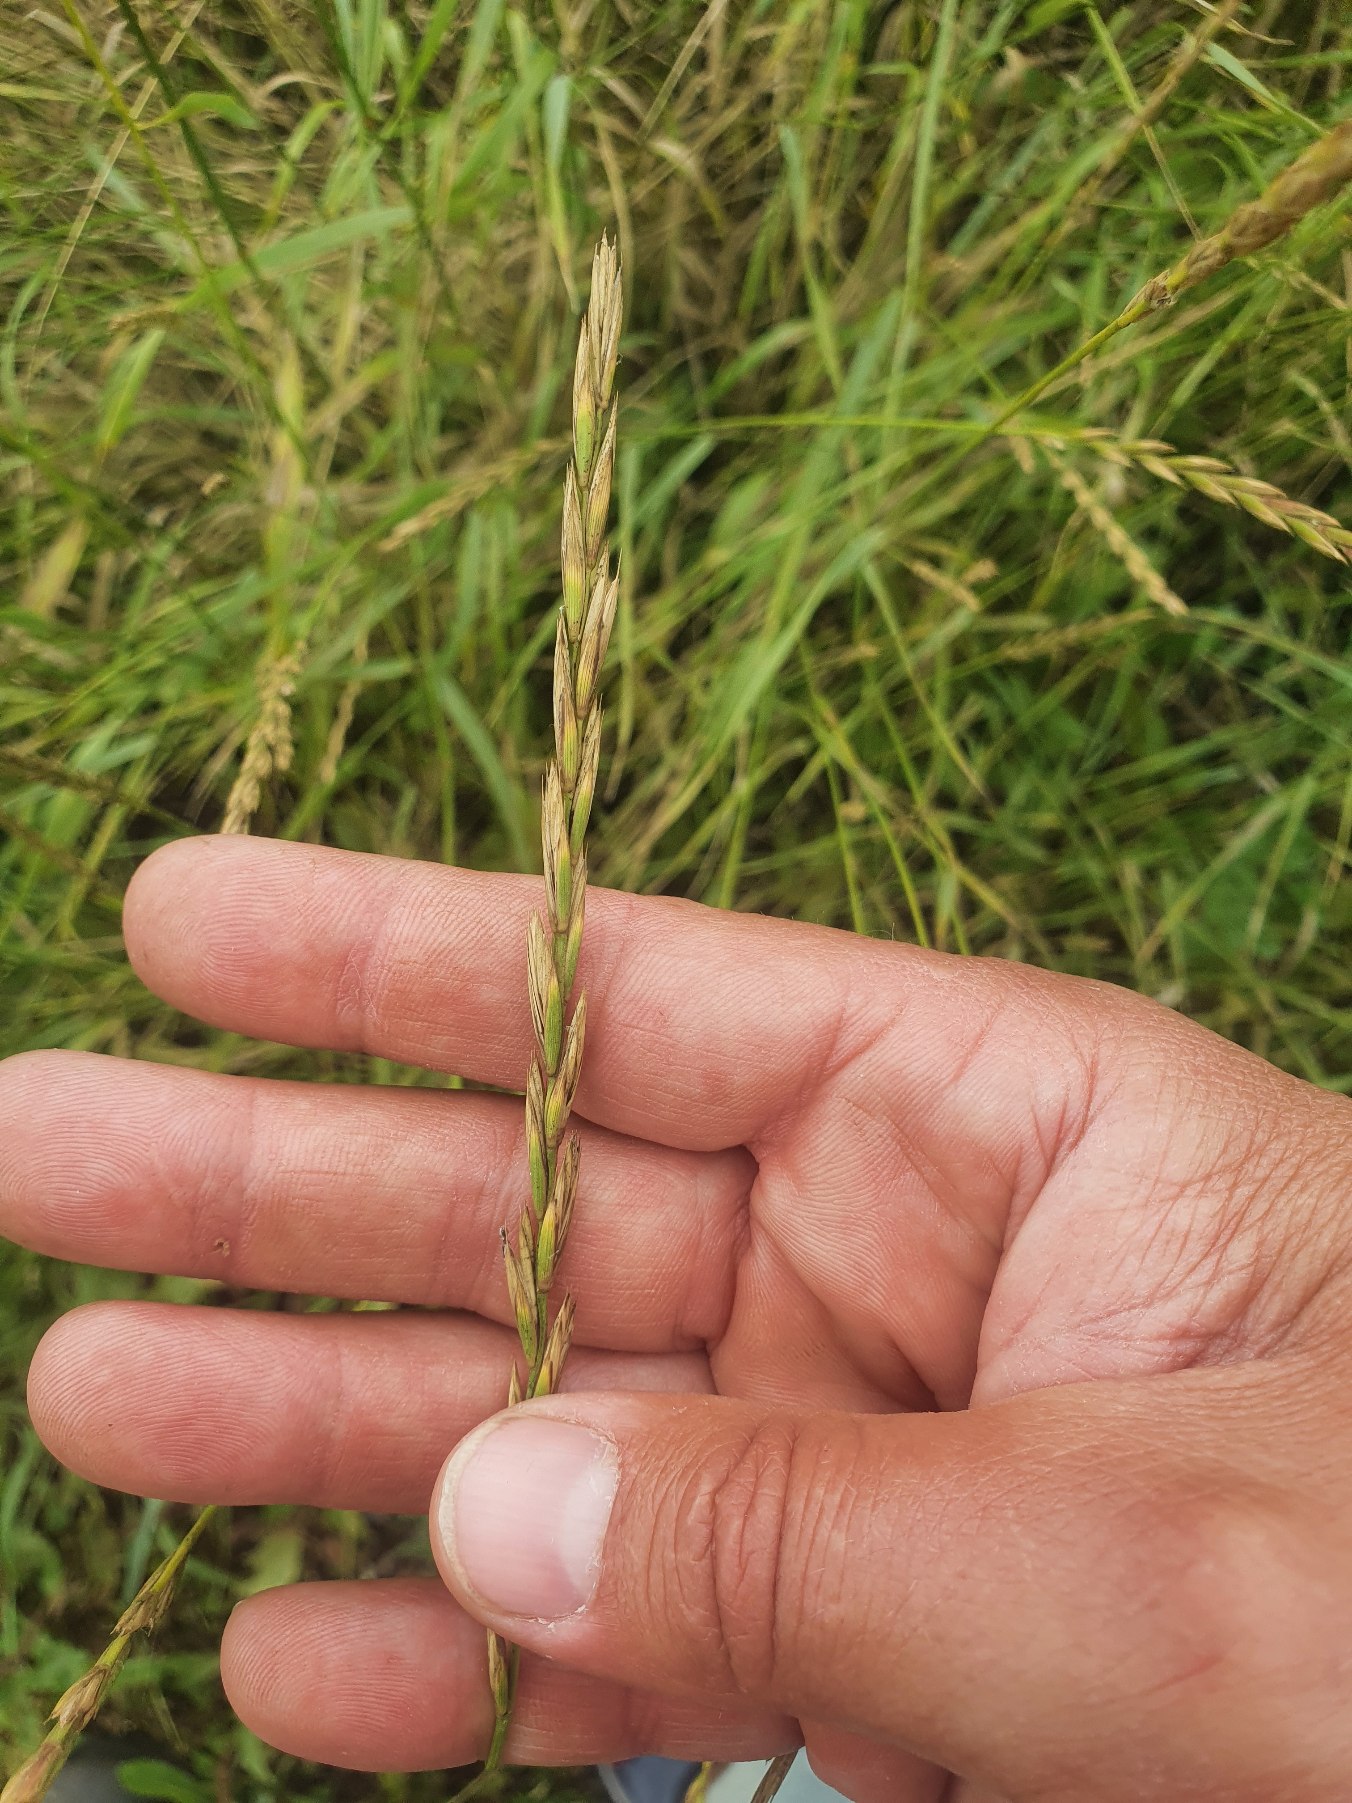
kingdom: Plantae
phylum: Tracheophyta
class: Liliopsida
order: Poales
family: Poaceae
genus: Elymus
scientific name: Elymus repens
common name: Almindelig kvik
